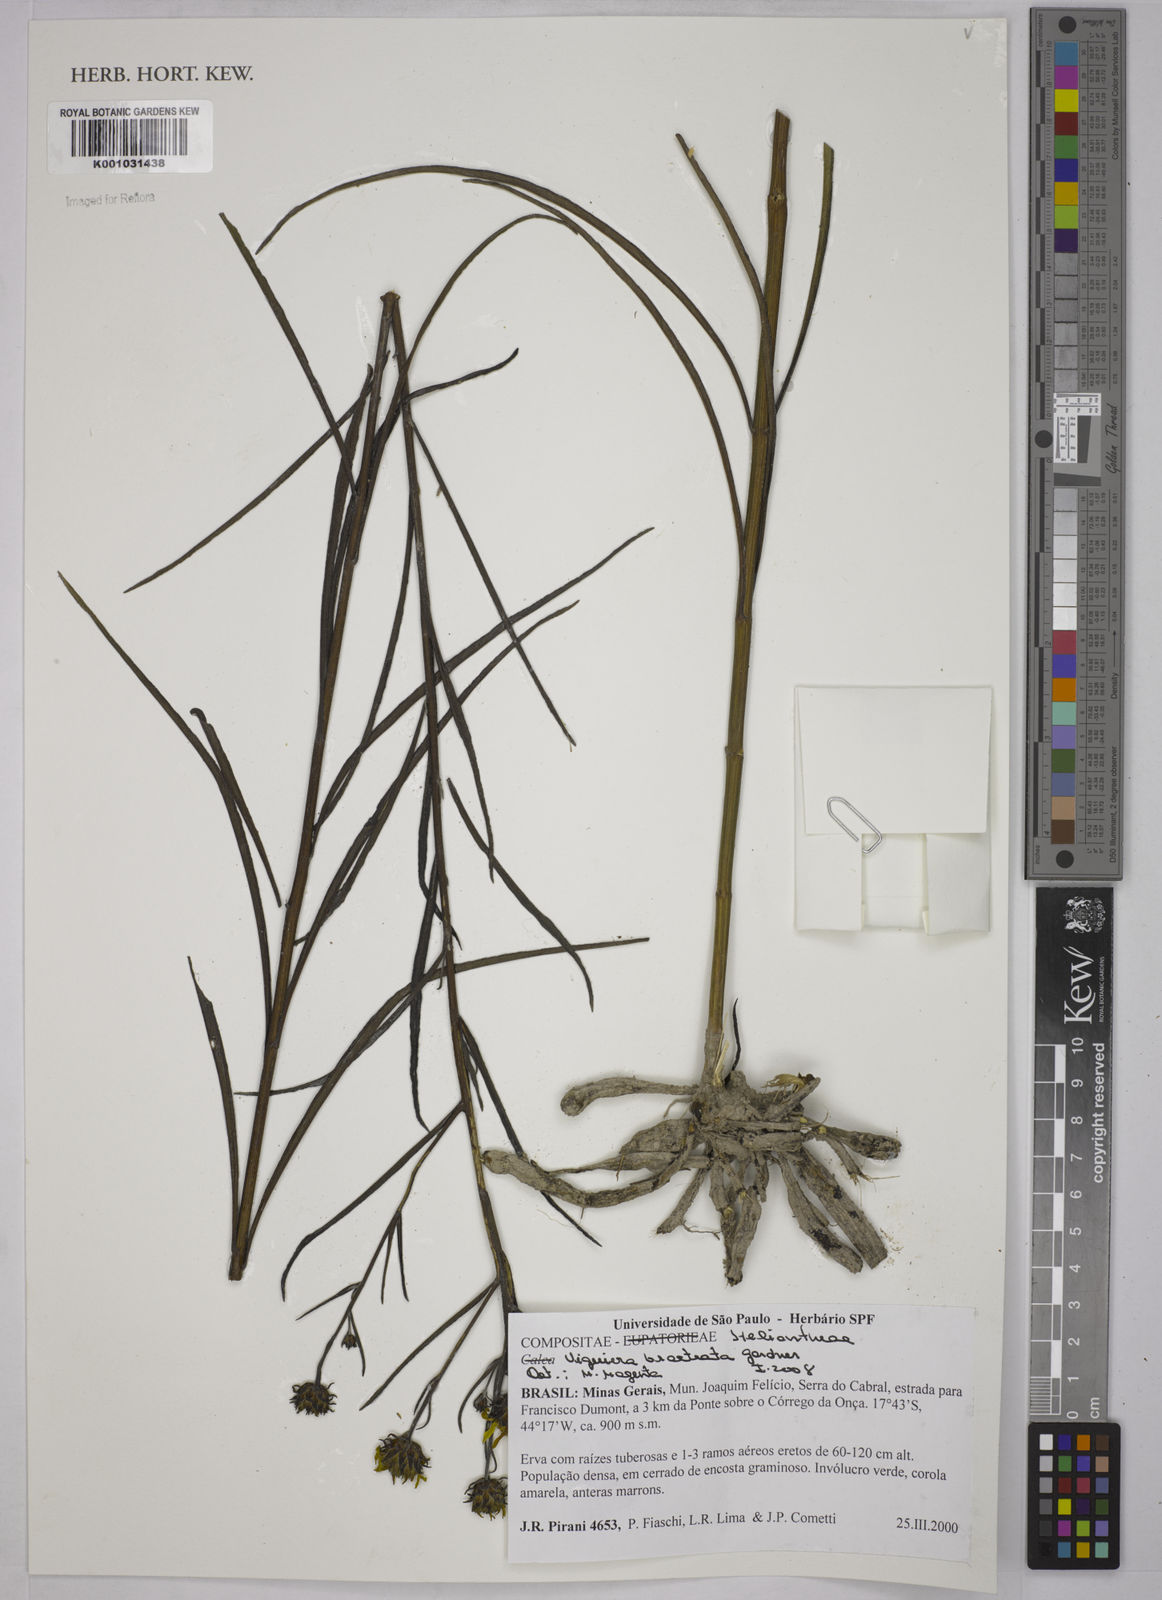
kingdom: Plantae
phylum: Tracheophyta
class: Magnoliopsida
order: Asterales
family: Asteraceae
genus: Aldama
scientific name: Aldama bracteata
